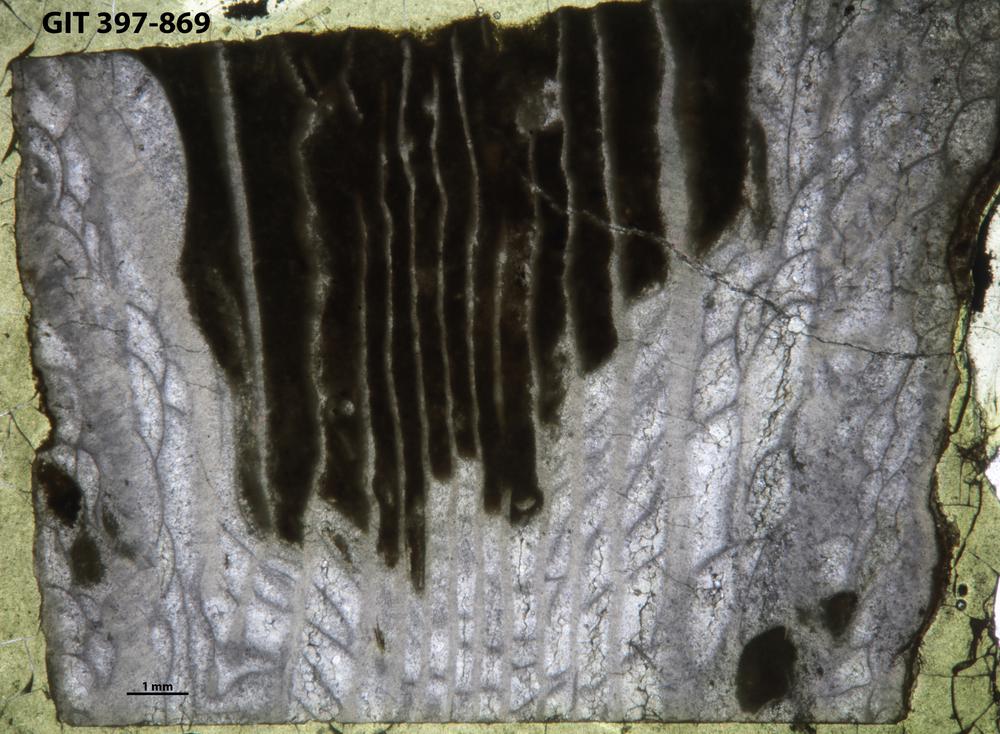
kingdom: Animalia
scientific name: Animalia
